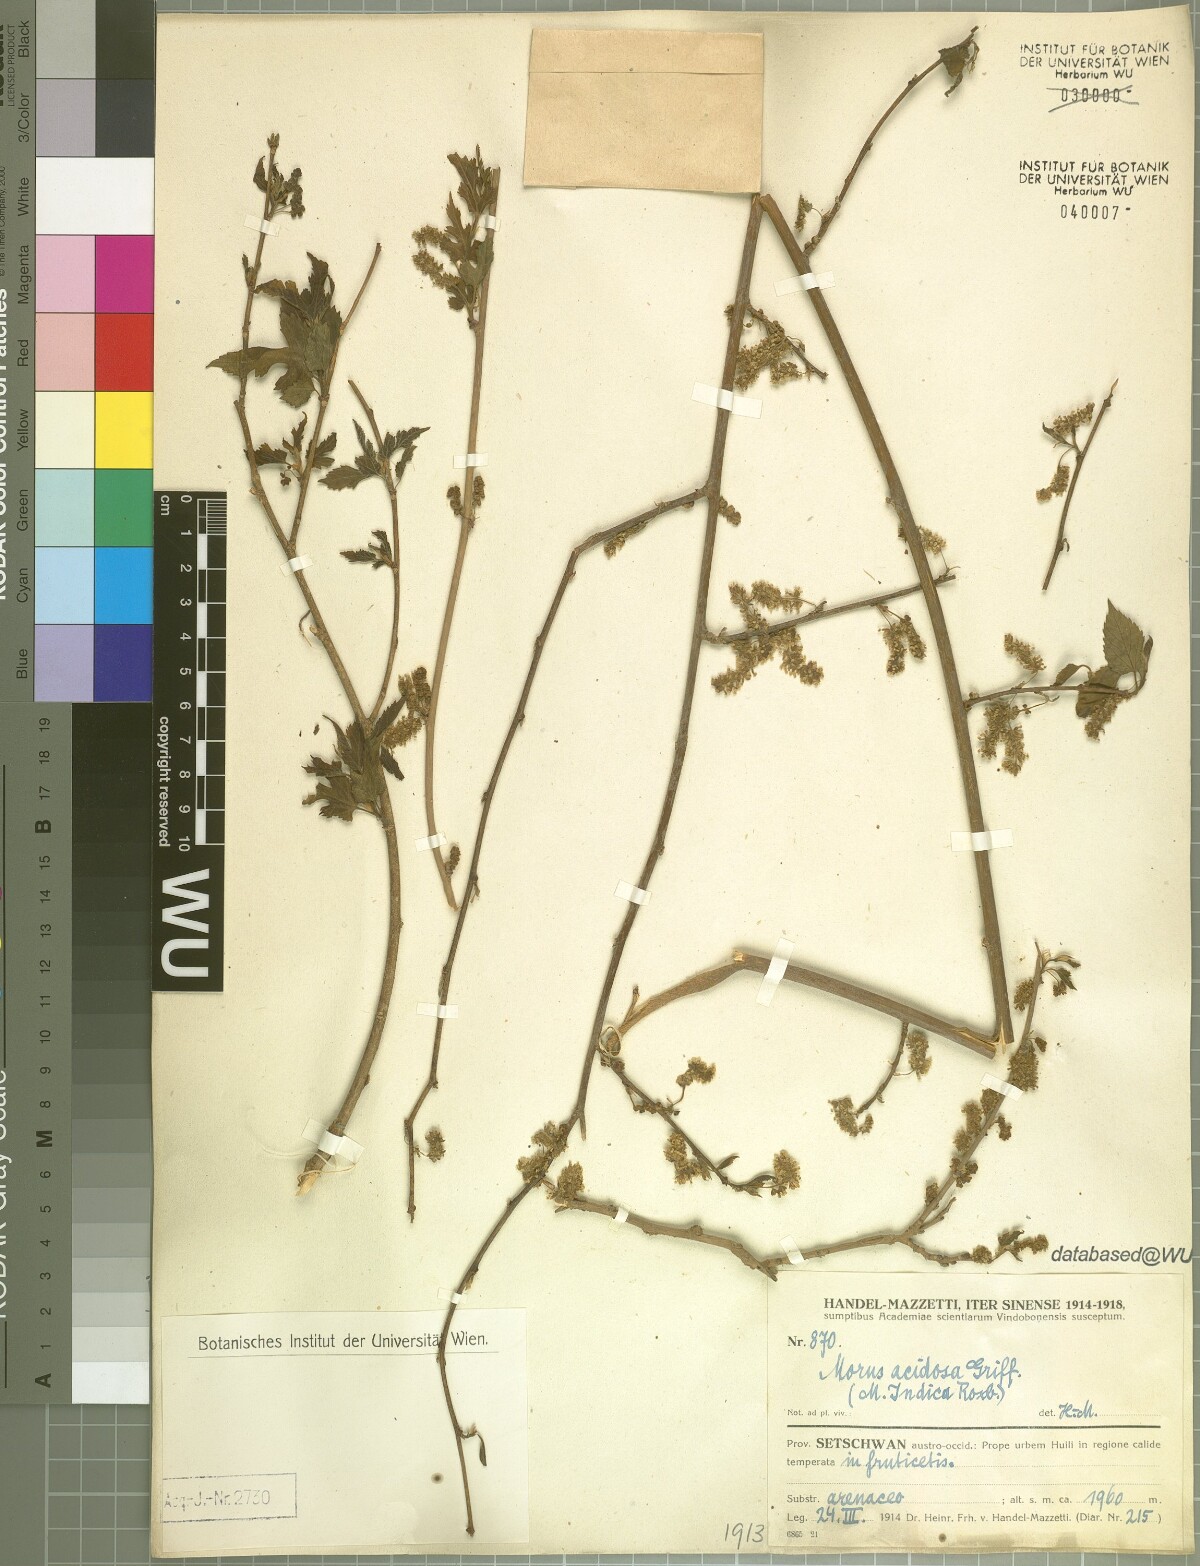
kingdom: Plantae
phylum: Tracheophyta
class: Magnoliopsida
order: Rosales
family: Moraceae
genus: Broussonetia
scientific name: Broussonetia papyrifera
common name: Paper mulberry
